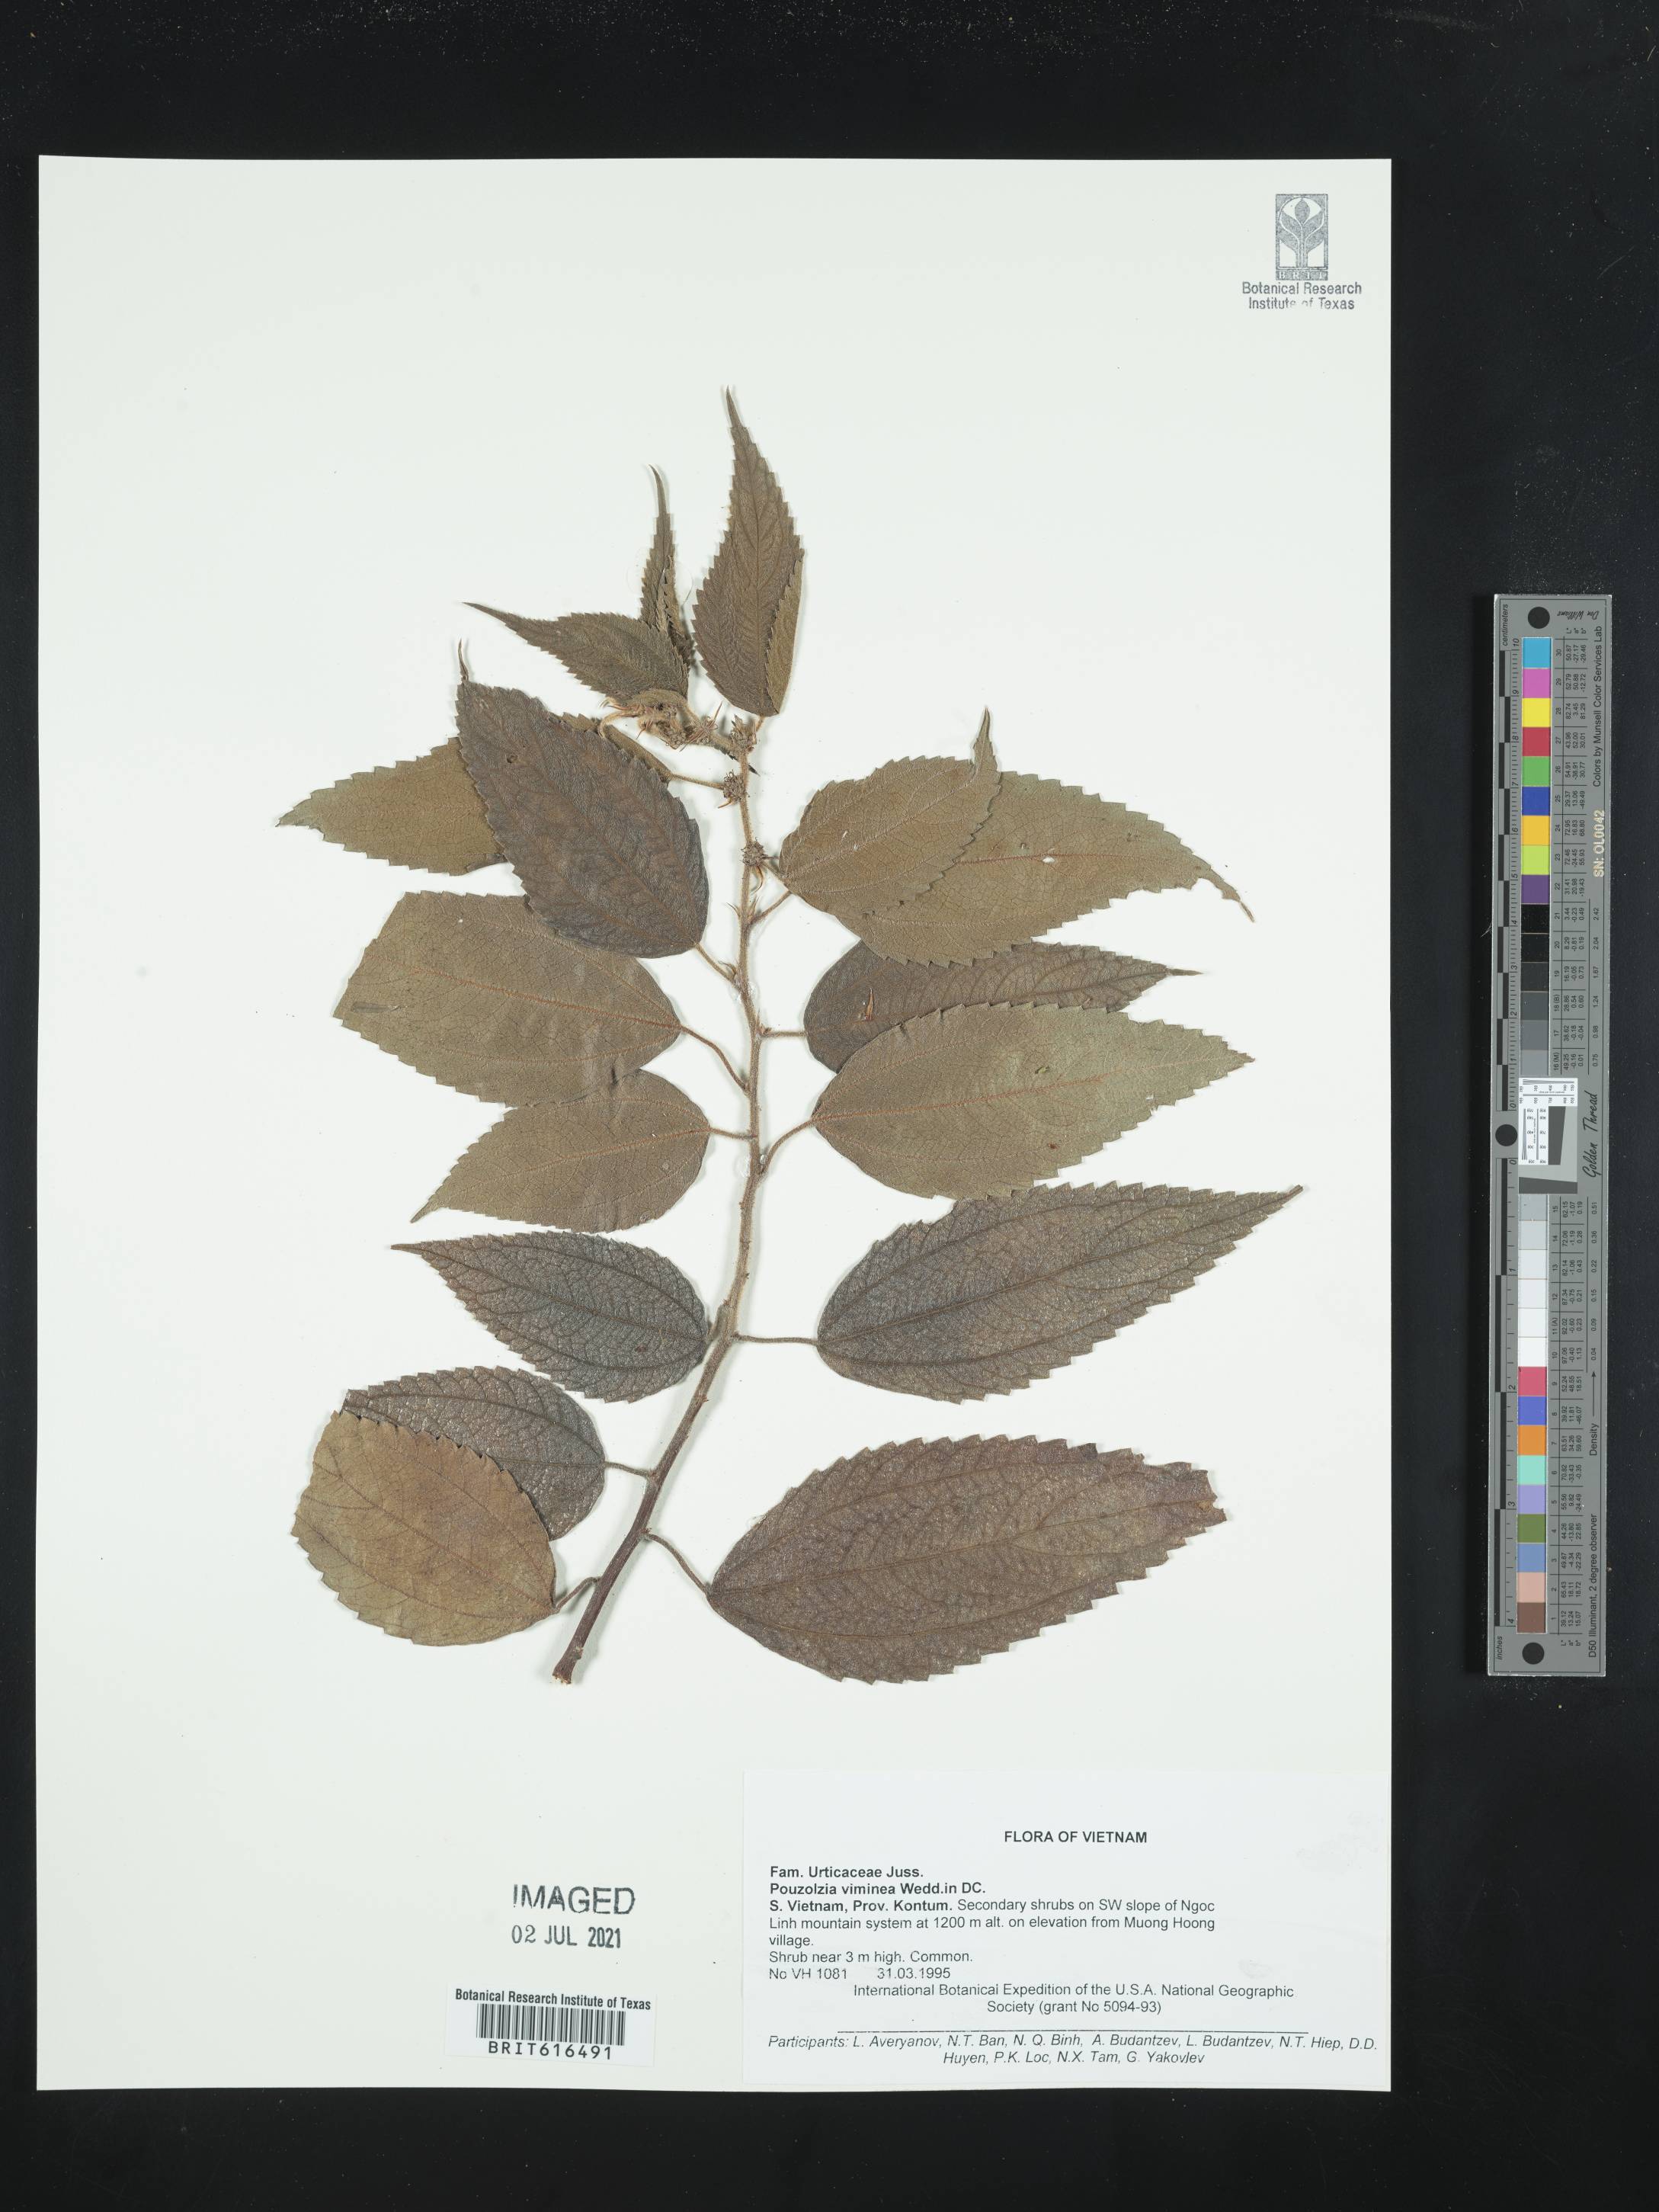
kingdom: Plantae
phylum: Tracheophyta
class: Magnoliopsida
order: Rosales
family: Urticaceae
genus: Pouzolzia
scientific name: Pouzolzia sanguinea
